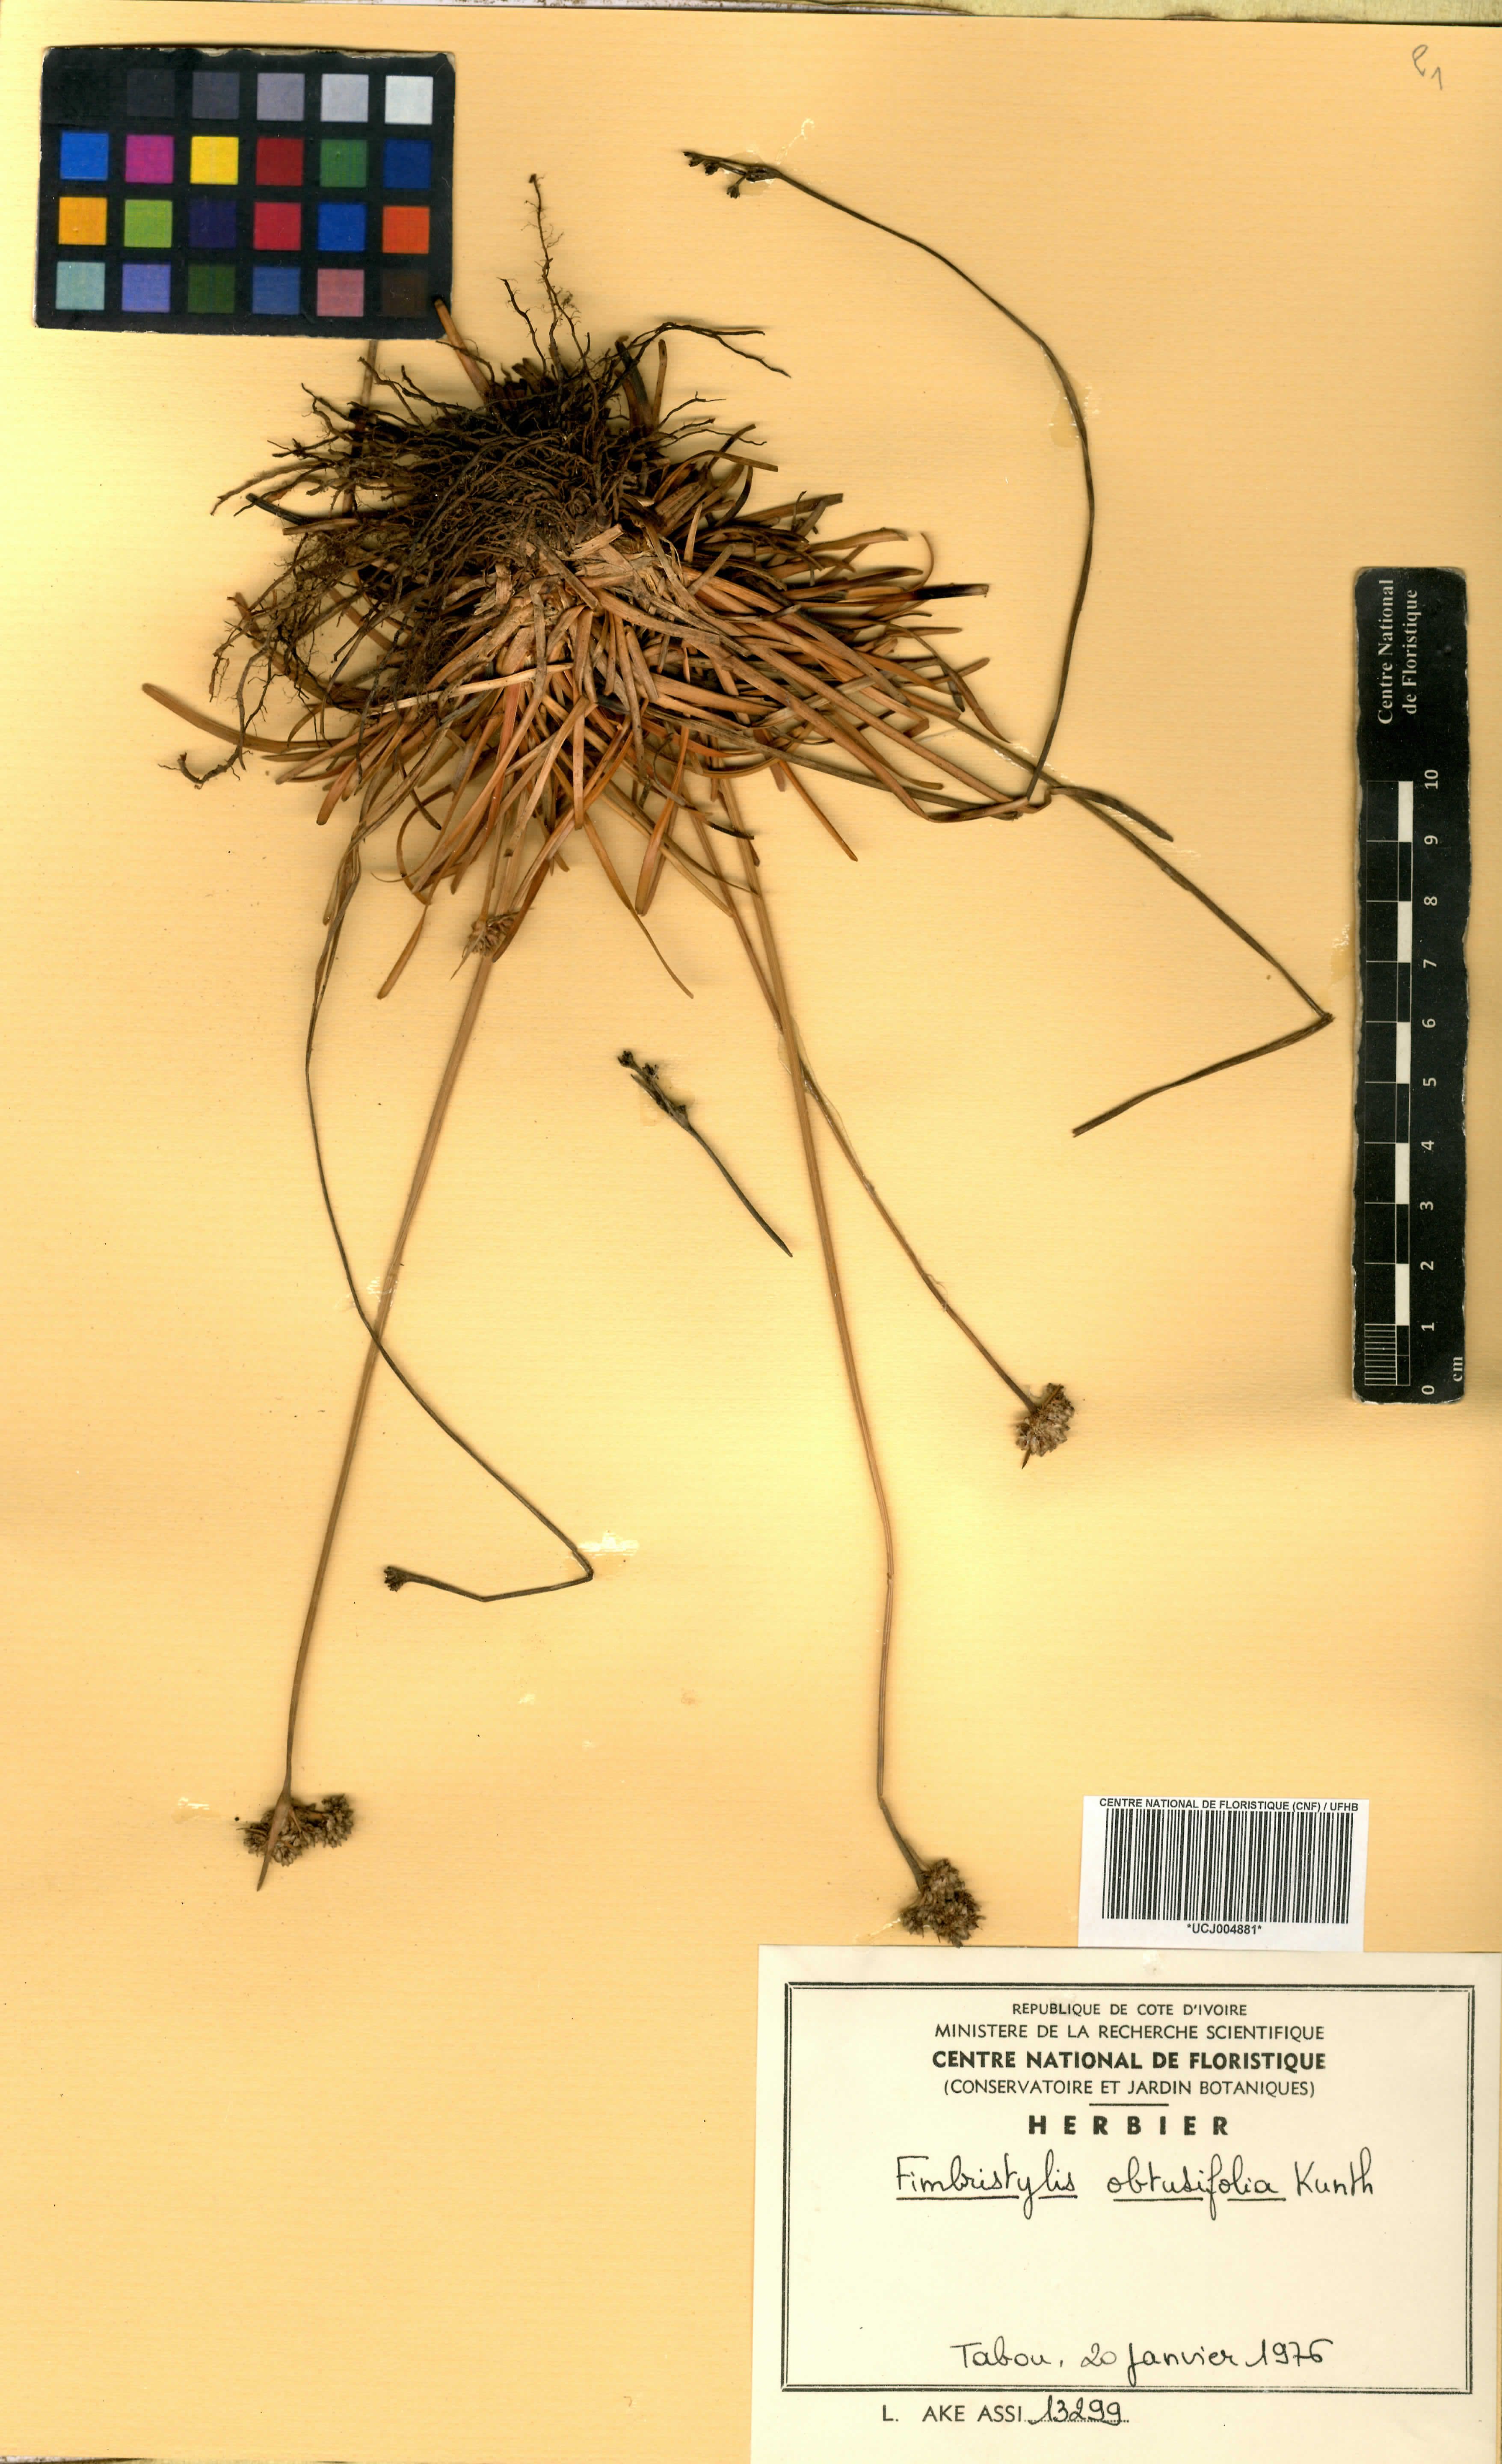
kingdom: Plantae
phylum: Tracheophyta
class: Liliopsida
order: Poales
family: Cyperaceae
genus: Fimbristylis
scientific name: Fimbristylis cymosa
